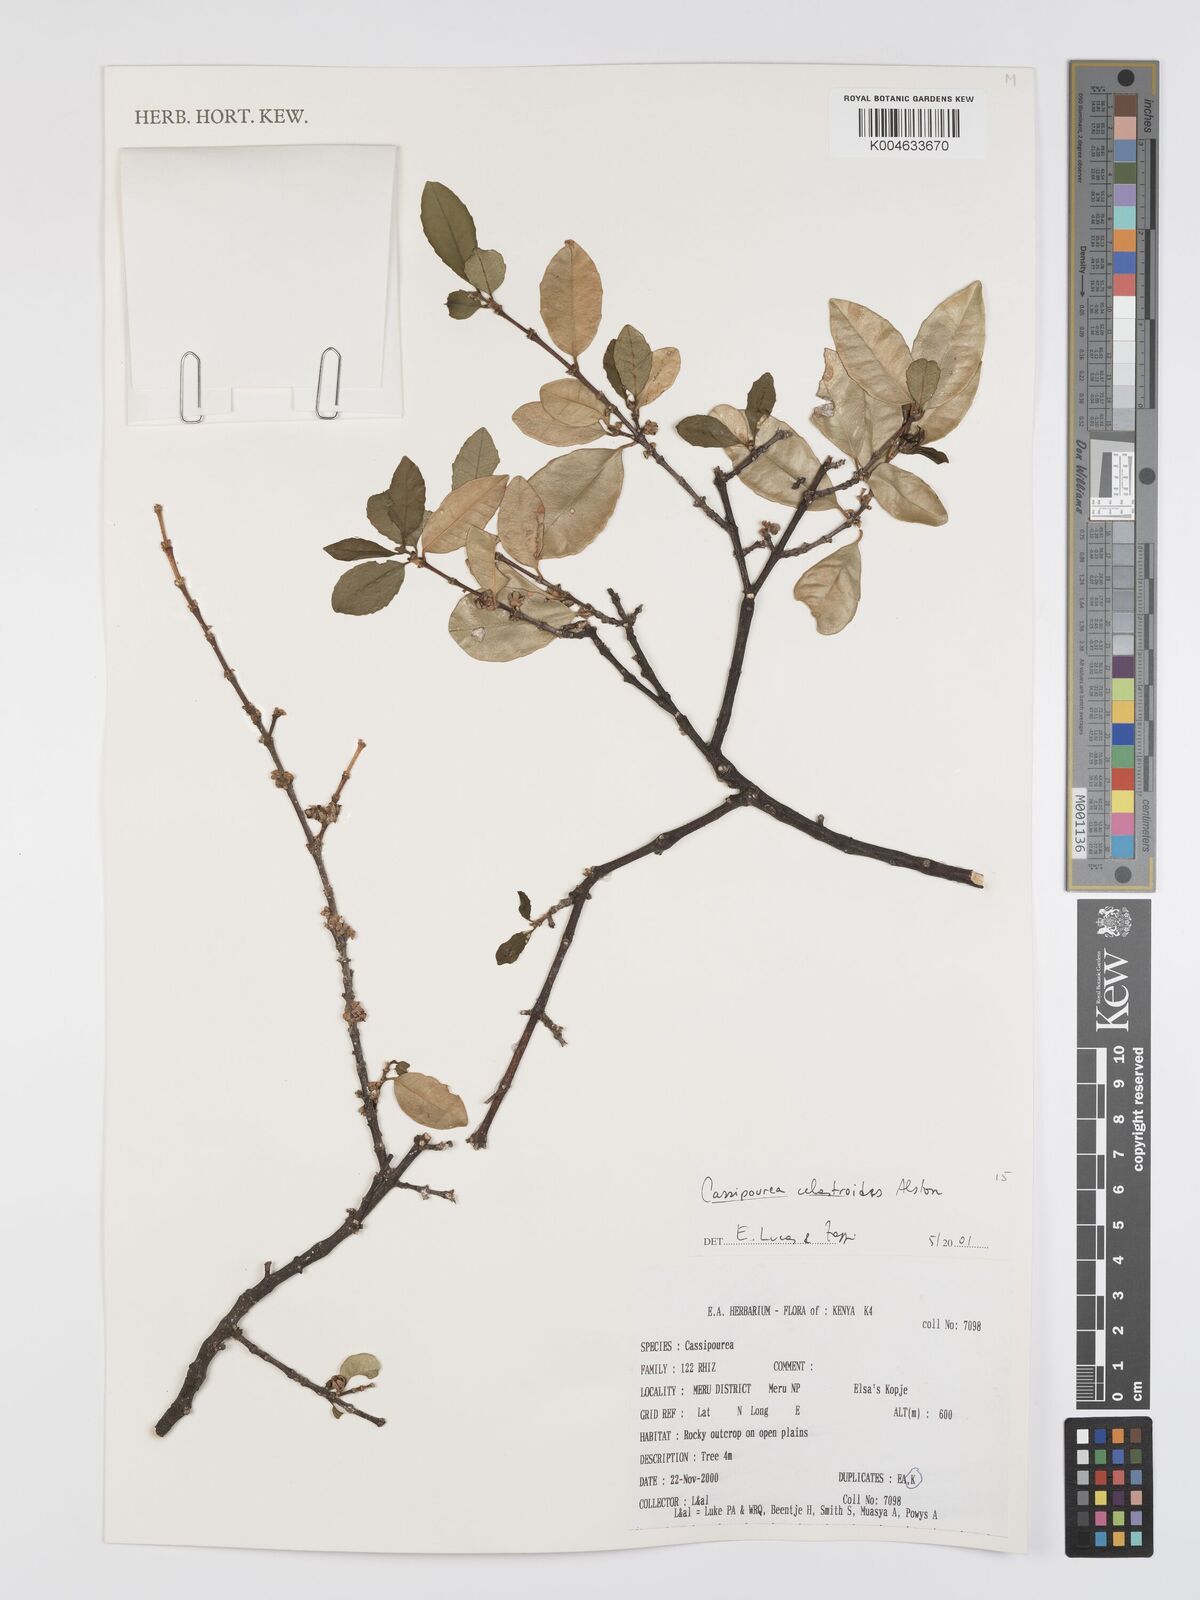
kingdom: Plantae
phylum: Tracheophyta
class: Magnoliopsida
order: Malpighiales
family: Rhizophoraceae
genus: Cassipourea
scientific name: Cassipourea celastroides
